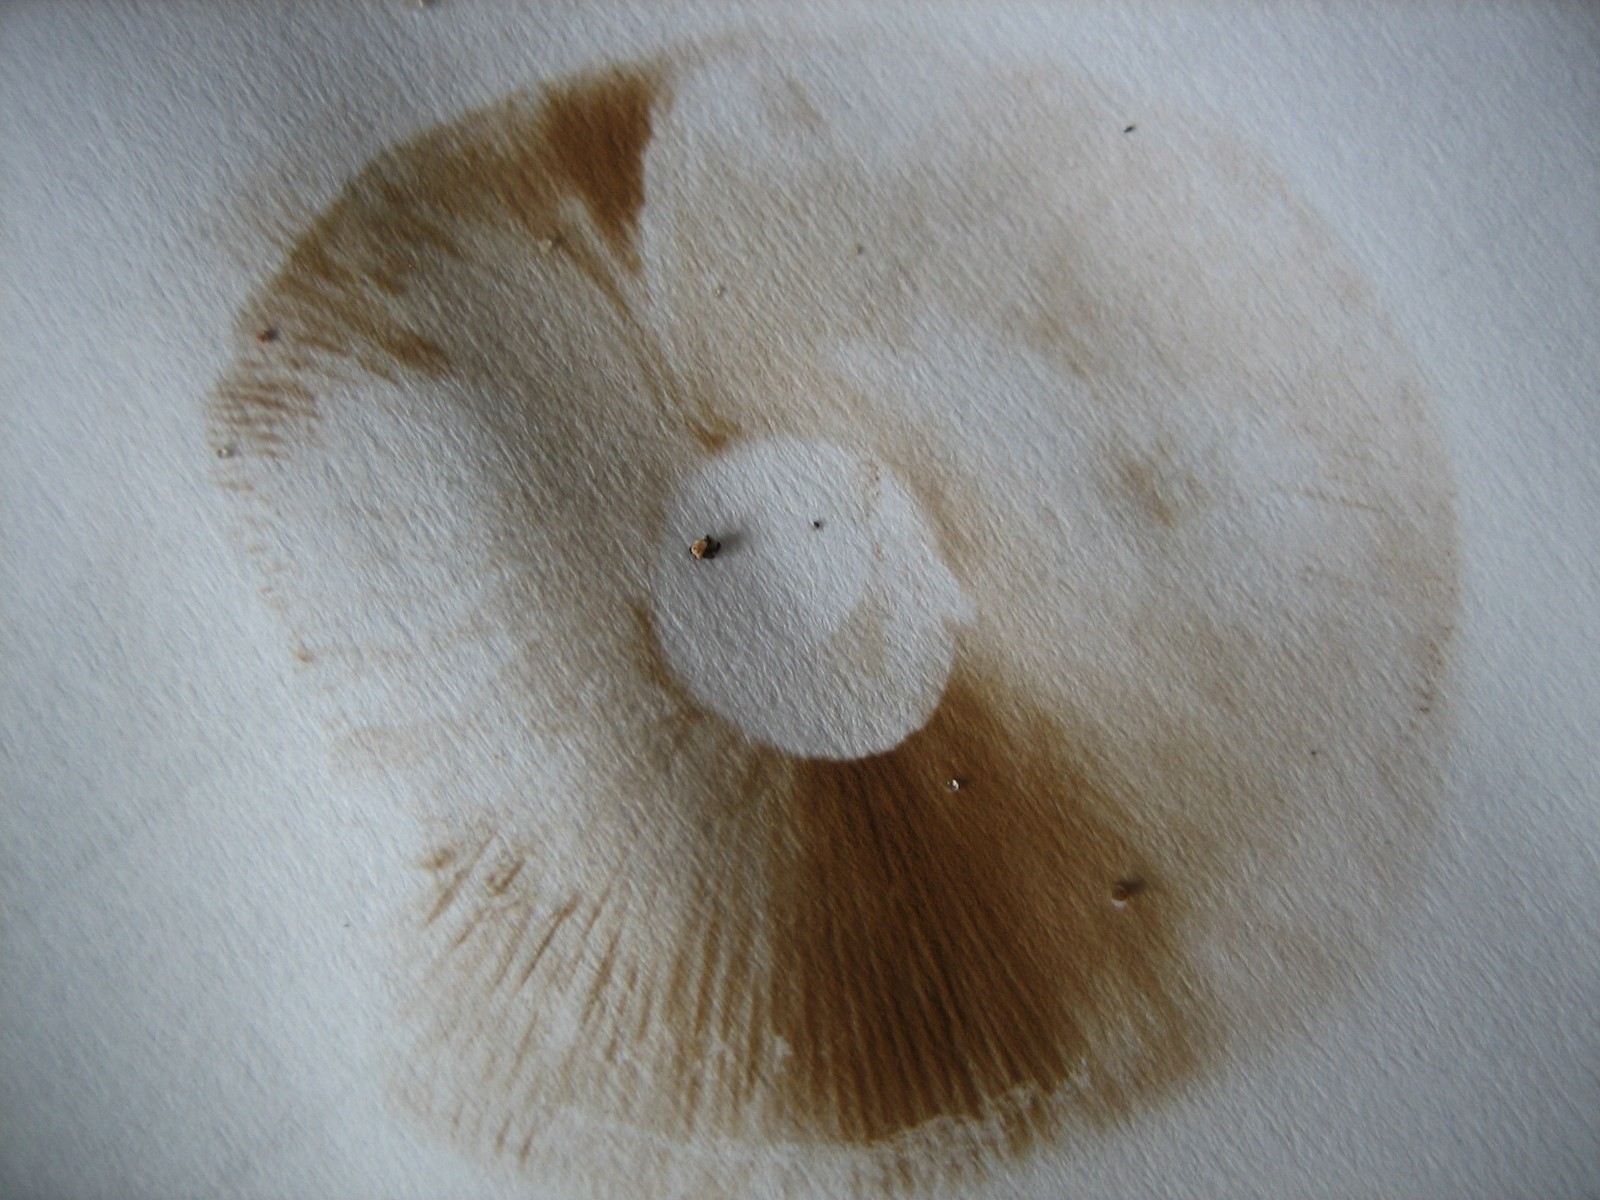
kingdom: Fungi
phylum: Basidiomycota
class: Agaricomycetes
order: Agaricales
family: Hymenogastraceae
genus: Hebeloma
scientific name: Hebeloma
